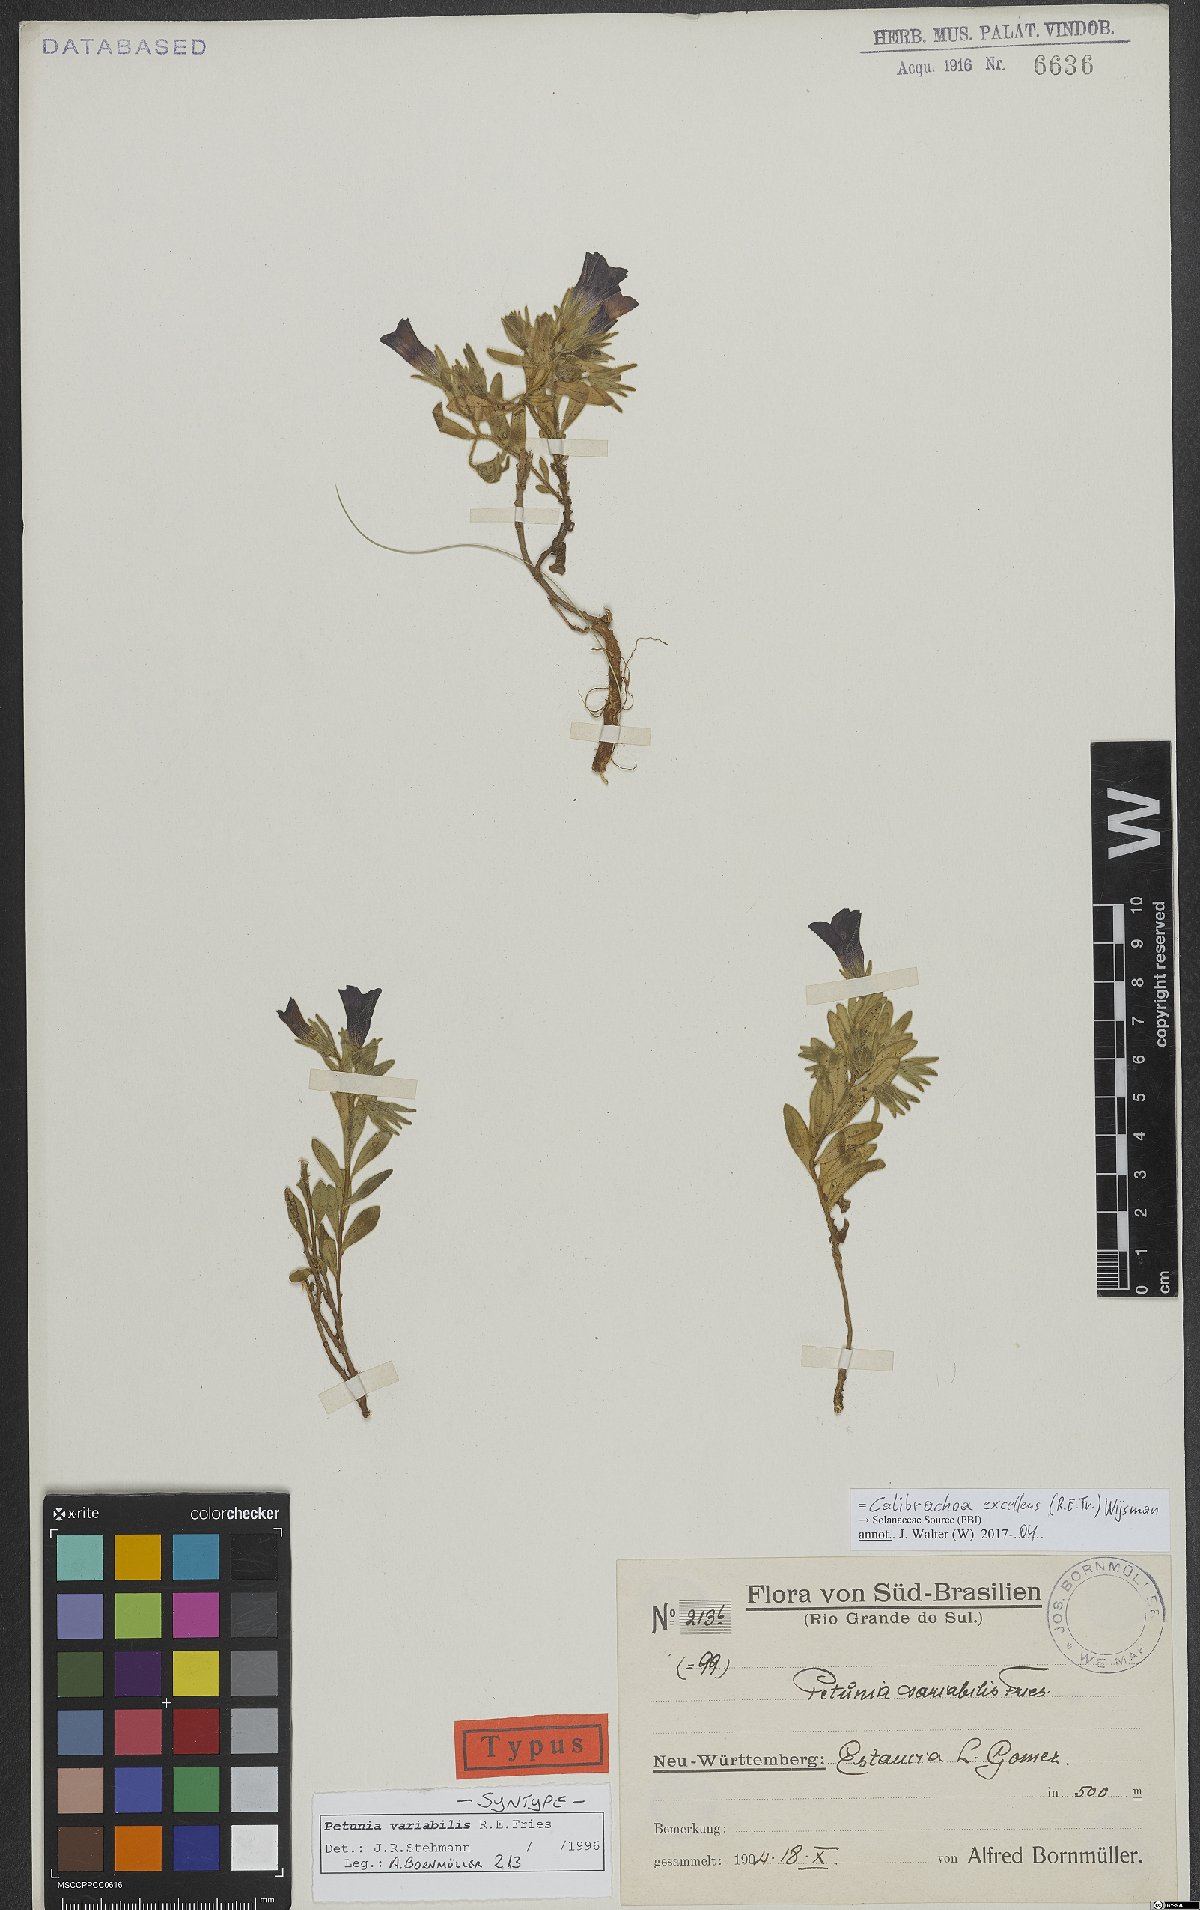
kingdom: Plantae
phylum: Tracheophyta
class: Magnoliopsida
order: Solanales
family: Solanaceae
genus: Calibrachoa
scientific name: Calibrachoa excellens
